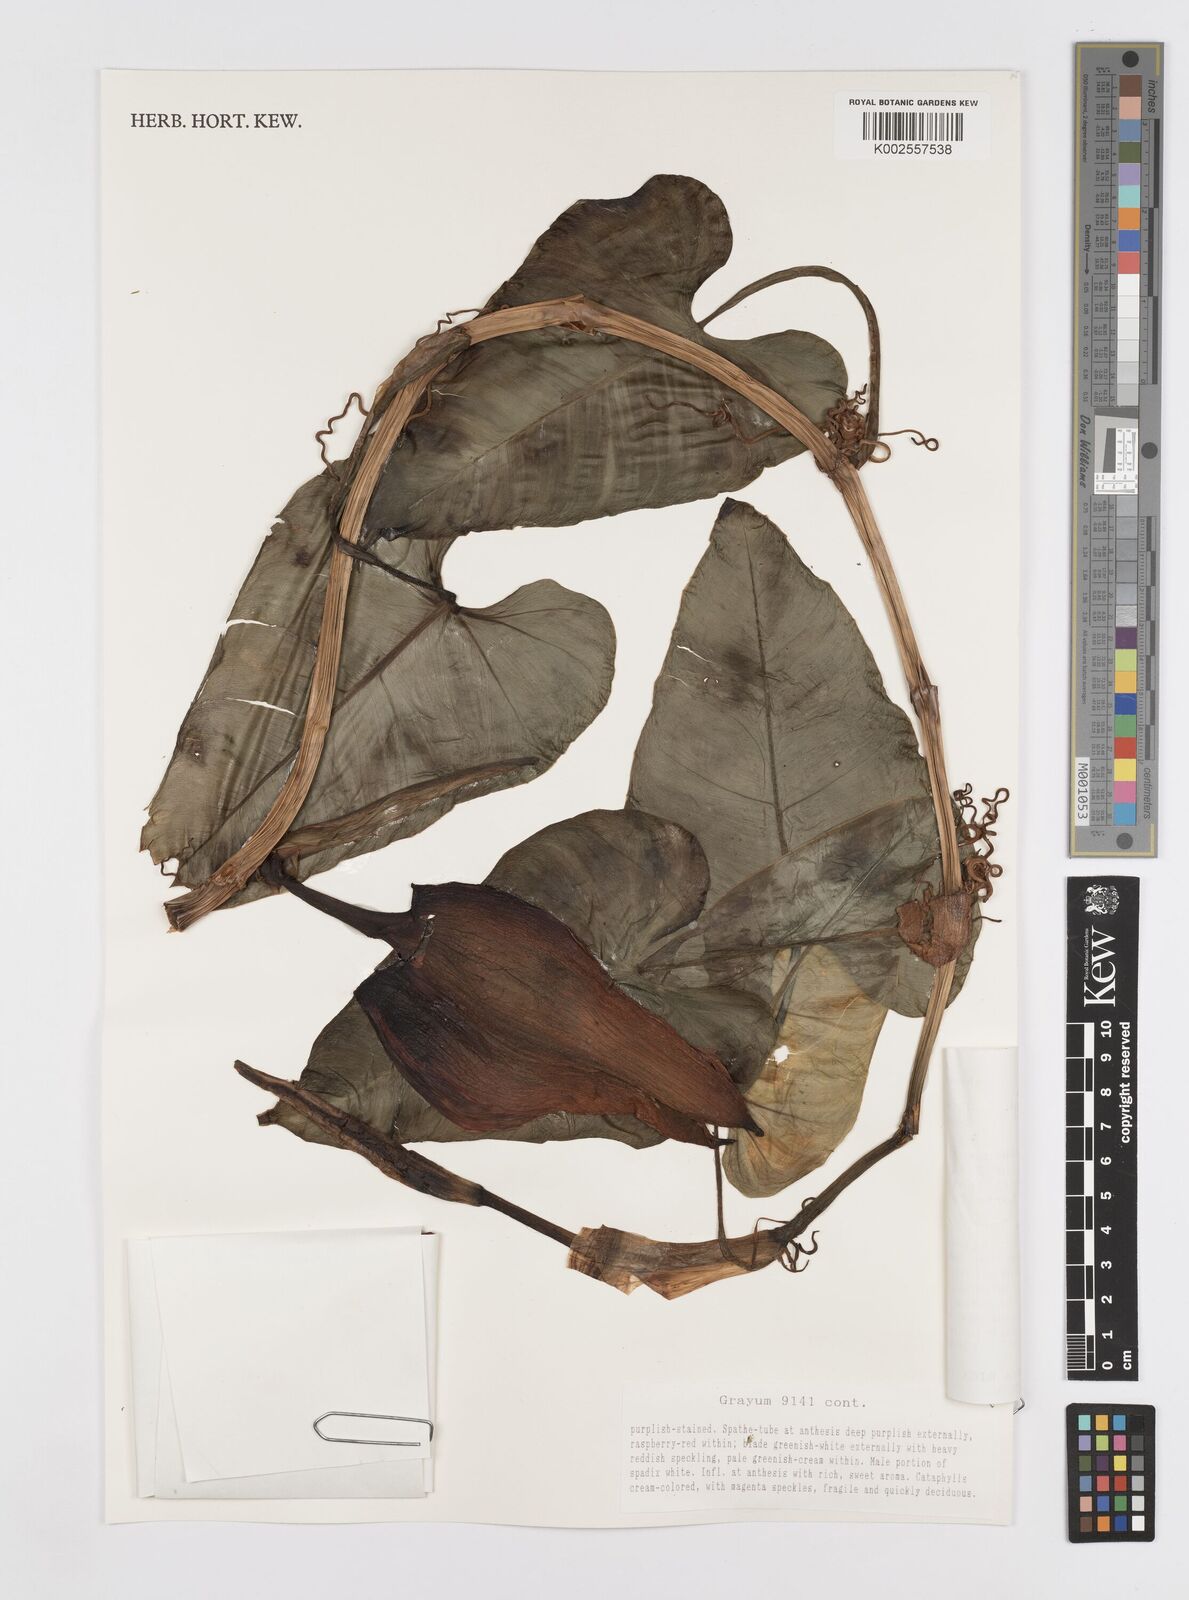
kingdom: Plantae
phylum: Tracheophyta
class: Liliopsida
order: Alismatales
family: Araceae
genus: Philodendron
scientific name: Philodendron purpureoviride
